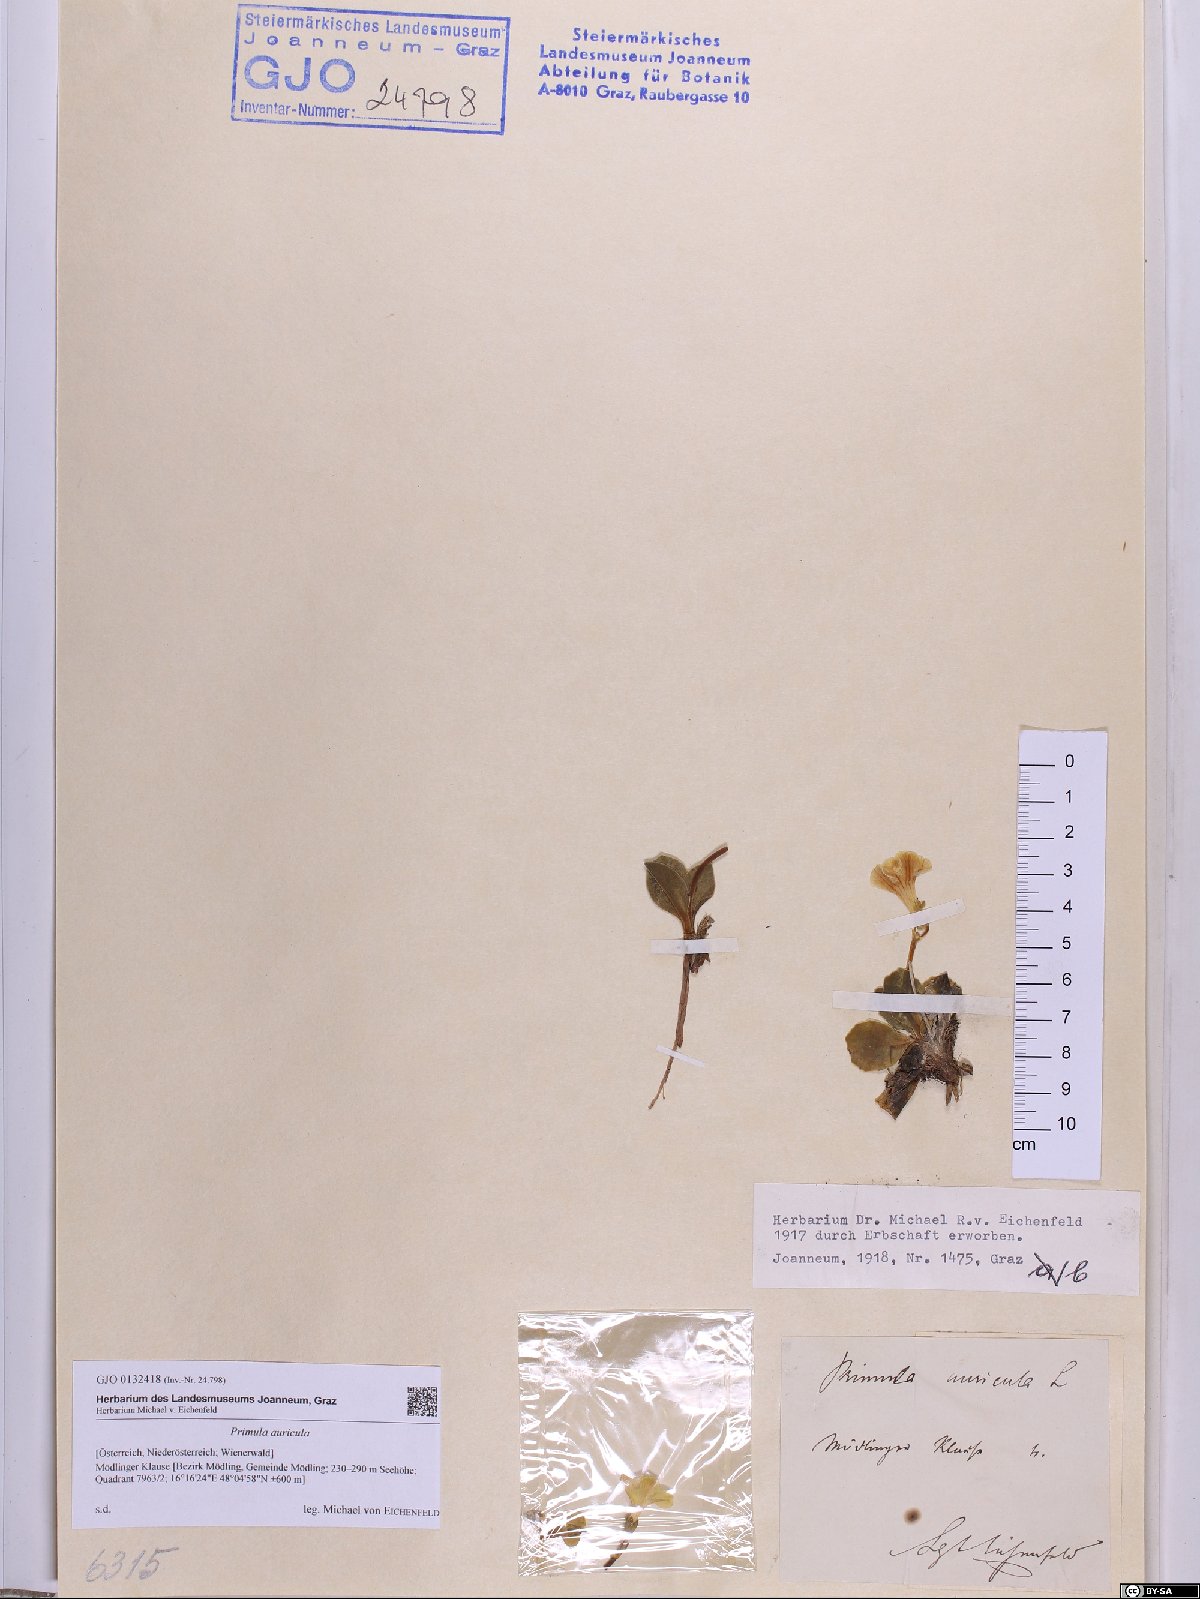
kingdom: Plantae
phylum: Tracheophyta
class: Magnoliopsida
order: Ericales
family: Primulaceae
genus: Primula
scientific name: Primula auricula
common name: Auricula
